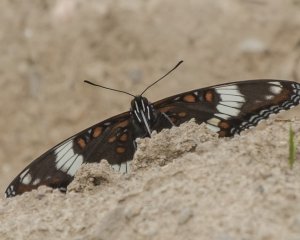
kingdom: Animalia
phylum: Arthropoda
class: Insecta
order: Lepidoptera
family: Nymphalidae
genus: Limenitis
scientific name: Limenitis archippus
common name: Viceroy
